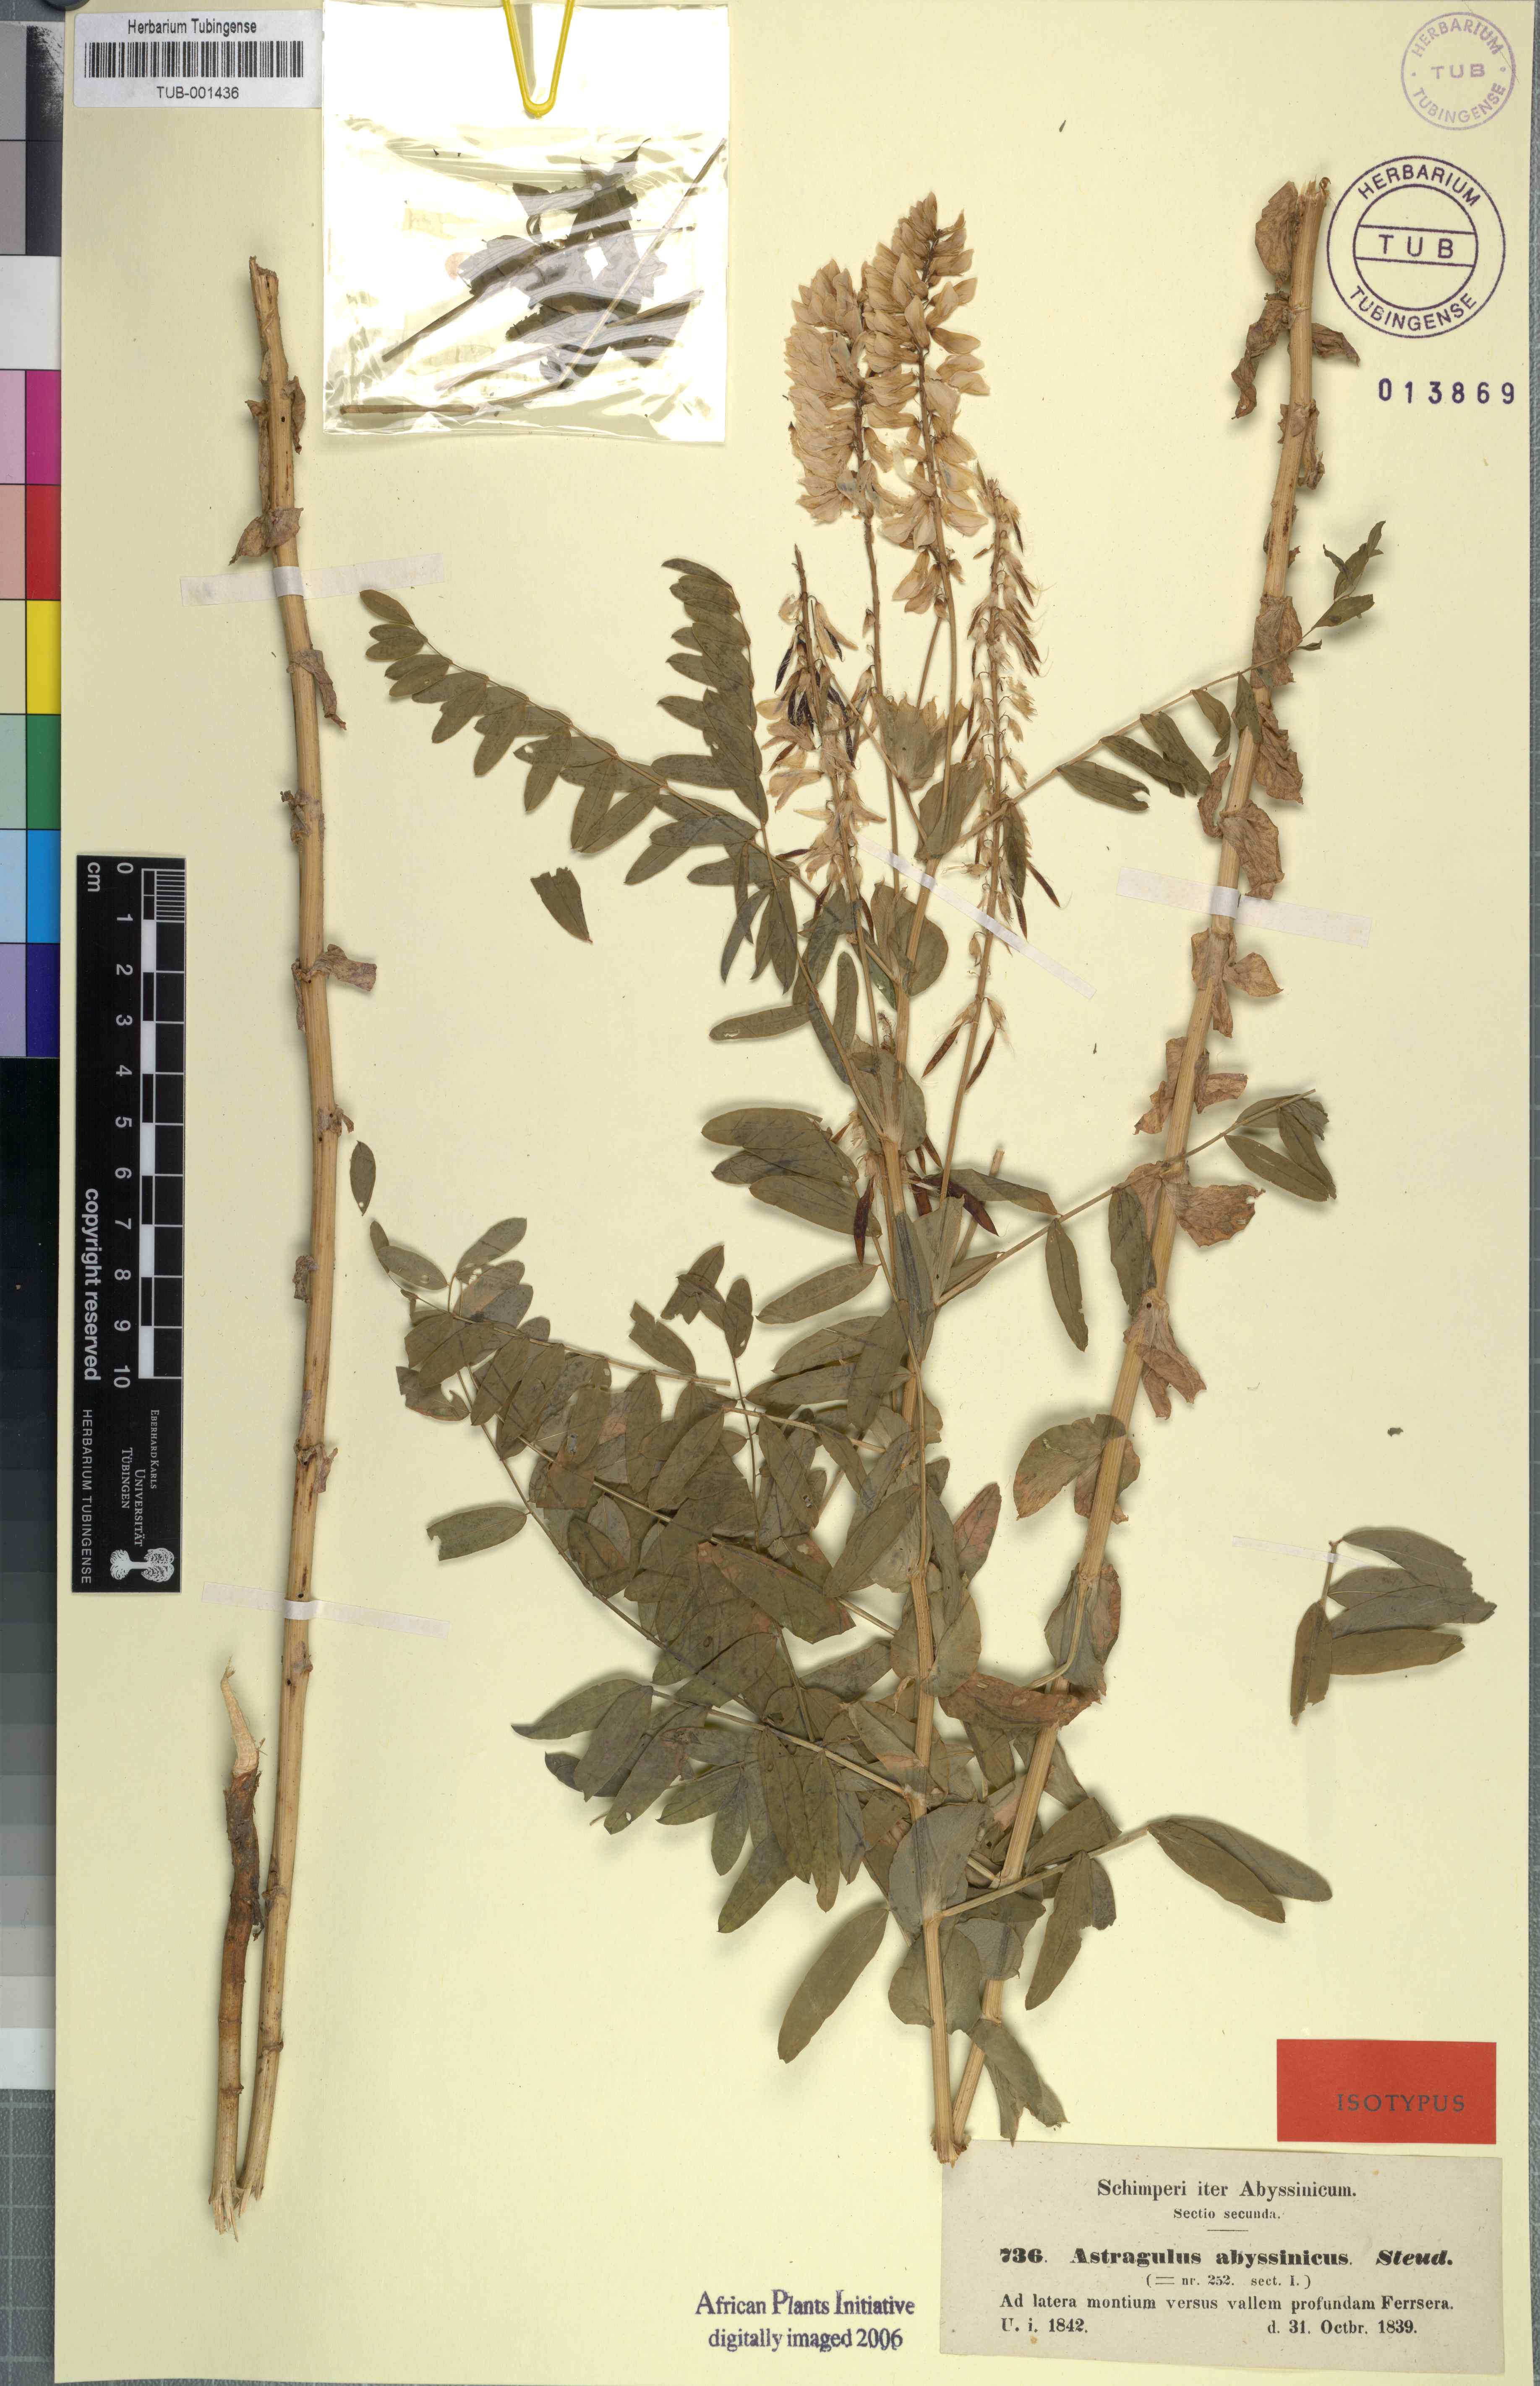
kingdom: Plantae
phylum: Tracheophyta
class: Magnoliopsida
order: Fabales
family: Fabaceae
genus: Astragalus
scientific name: Astragalus atropilosulus
